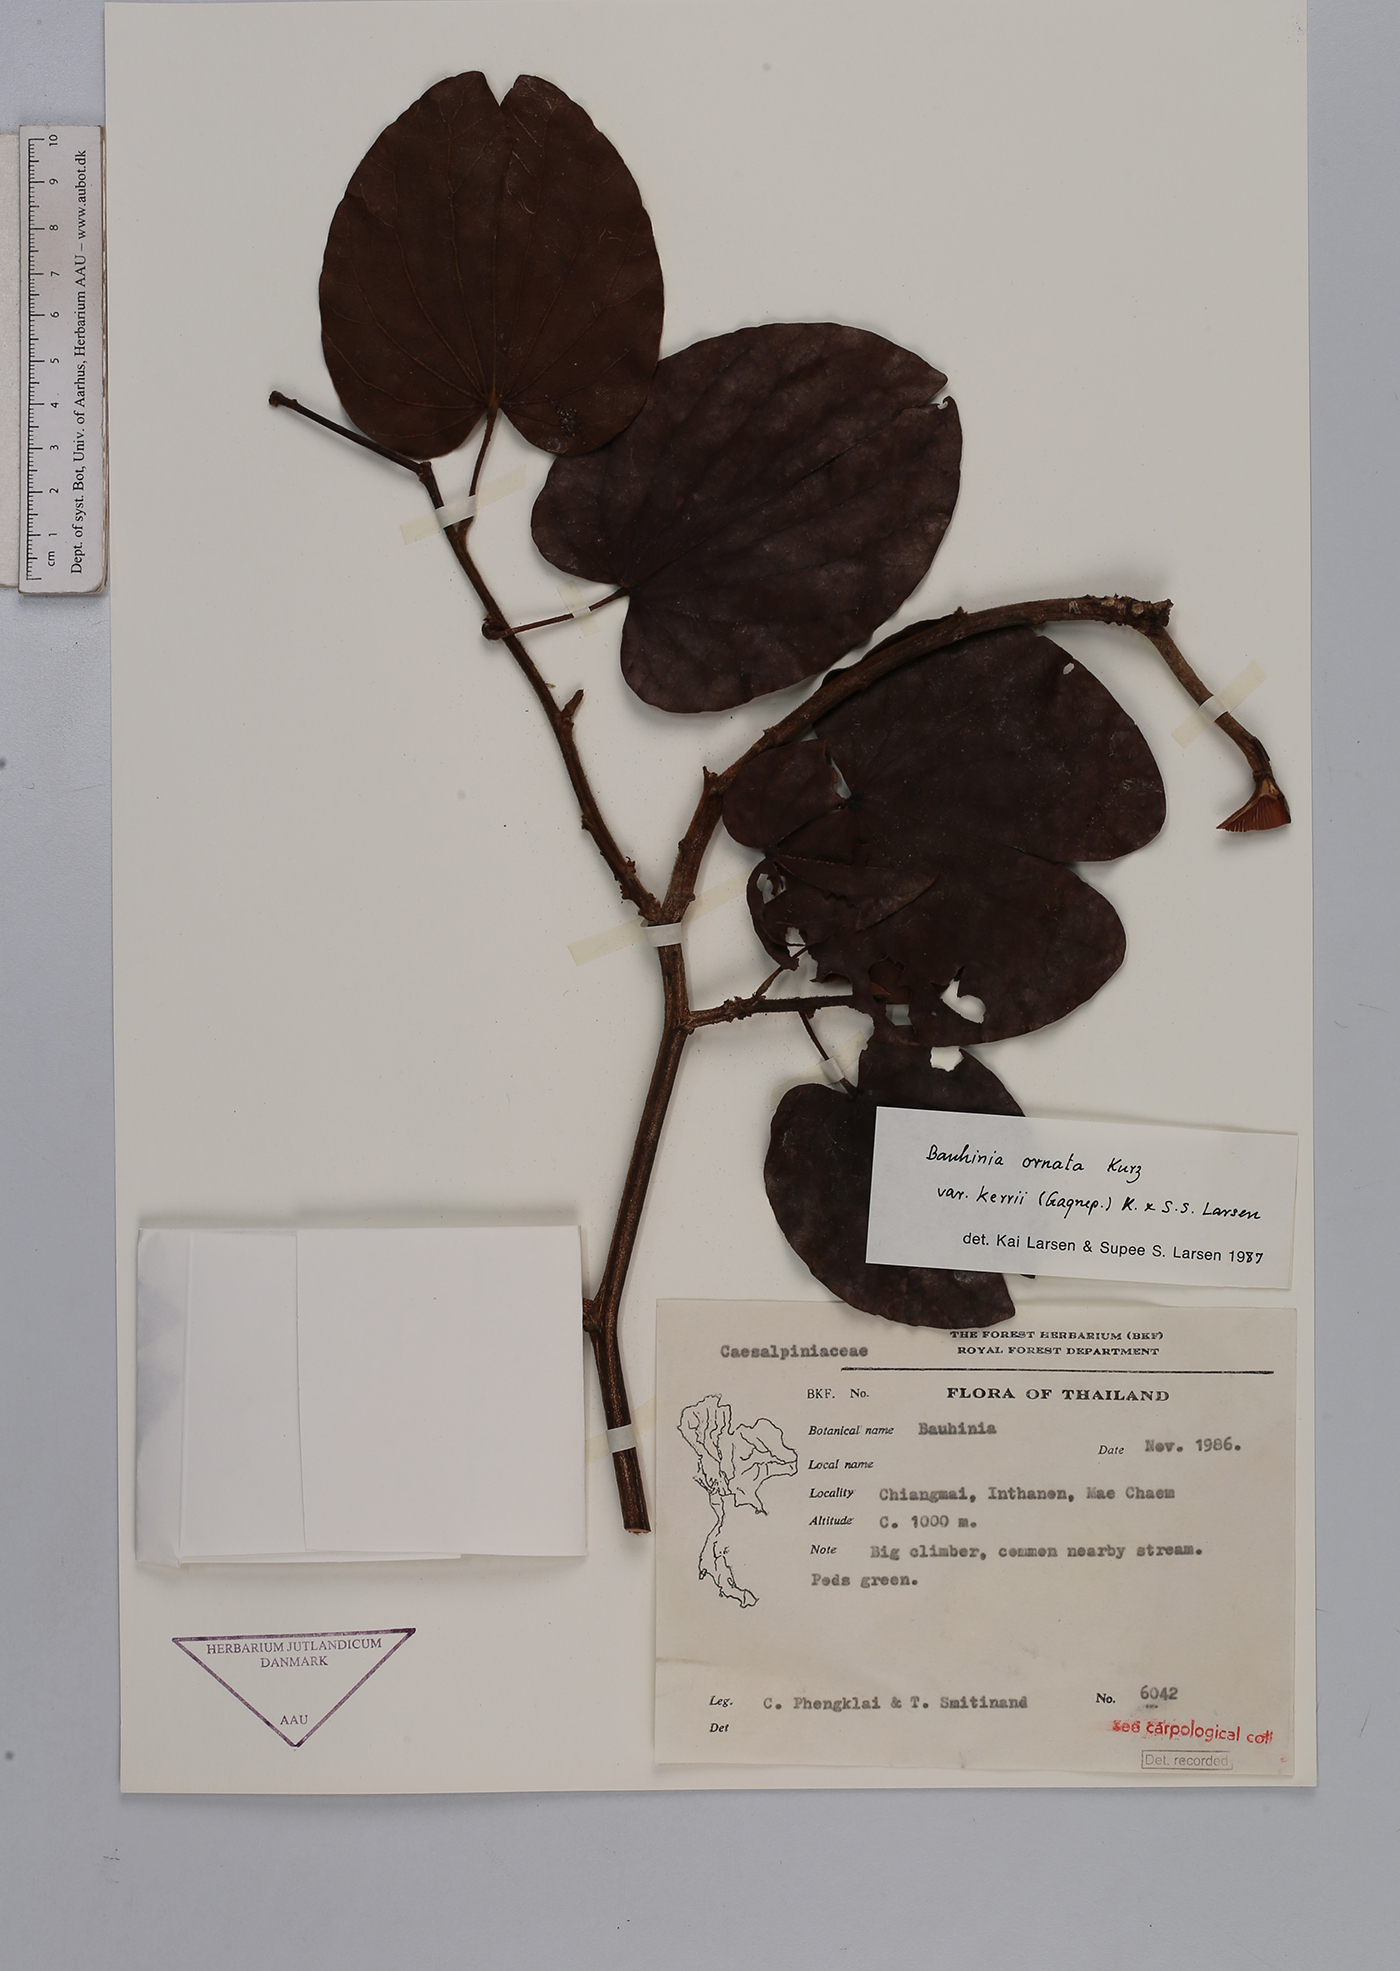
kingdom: Plantae
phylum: Tracheophyta
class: Magnoliopsida
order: Fabales
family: Fabaceae
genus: Phanera
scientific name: Phanera ornata
